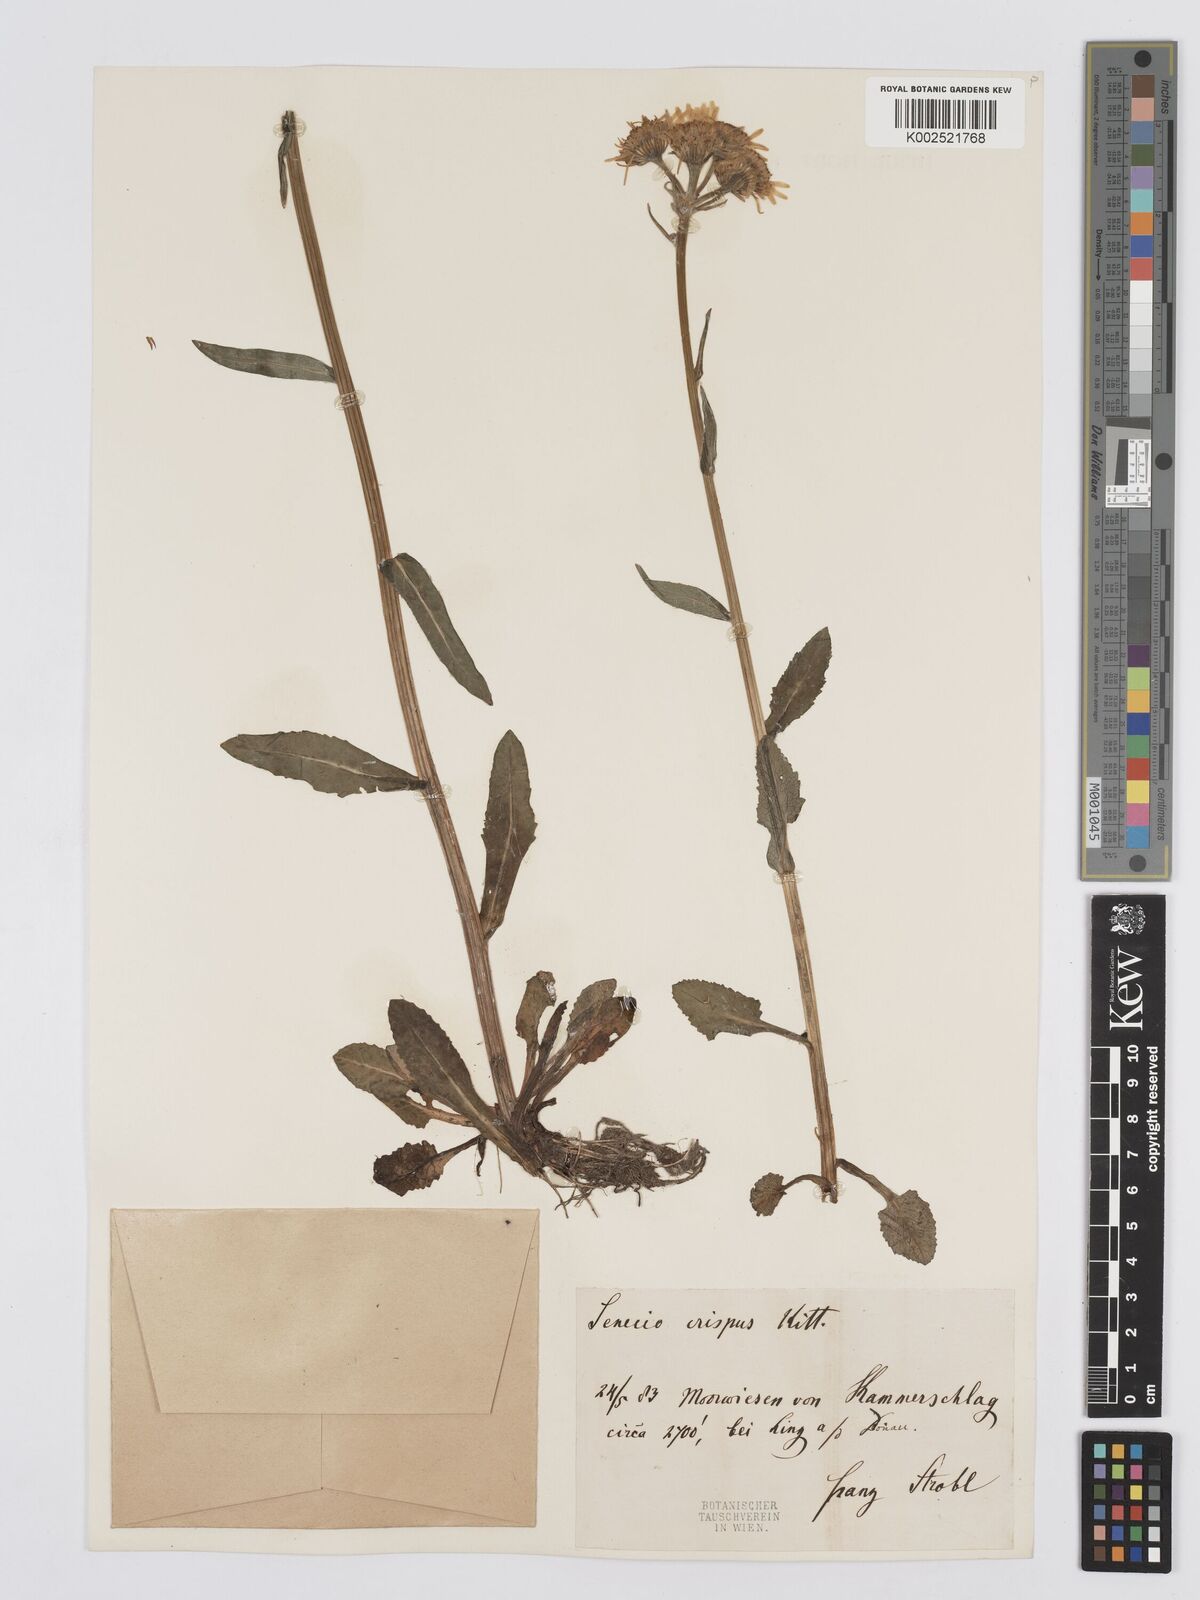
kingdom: Plantae
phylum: Tracheophyta
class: Magnoliopsida
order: Asterales
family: Asteraceae
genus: Tephroseris
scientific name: Tephroseris crispa
